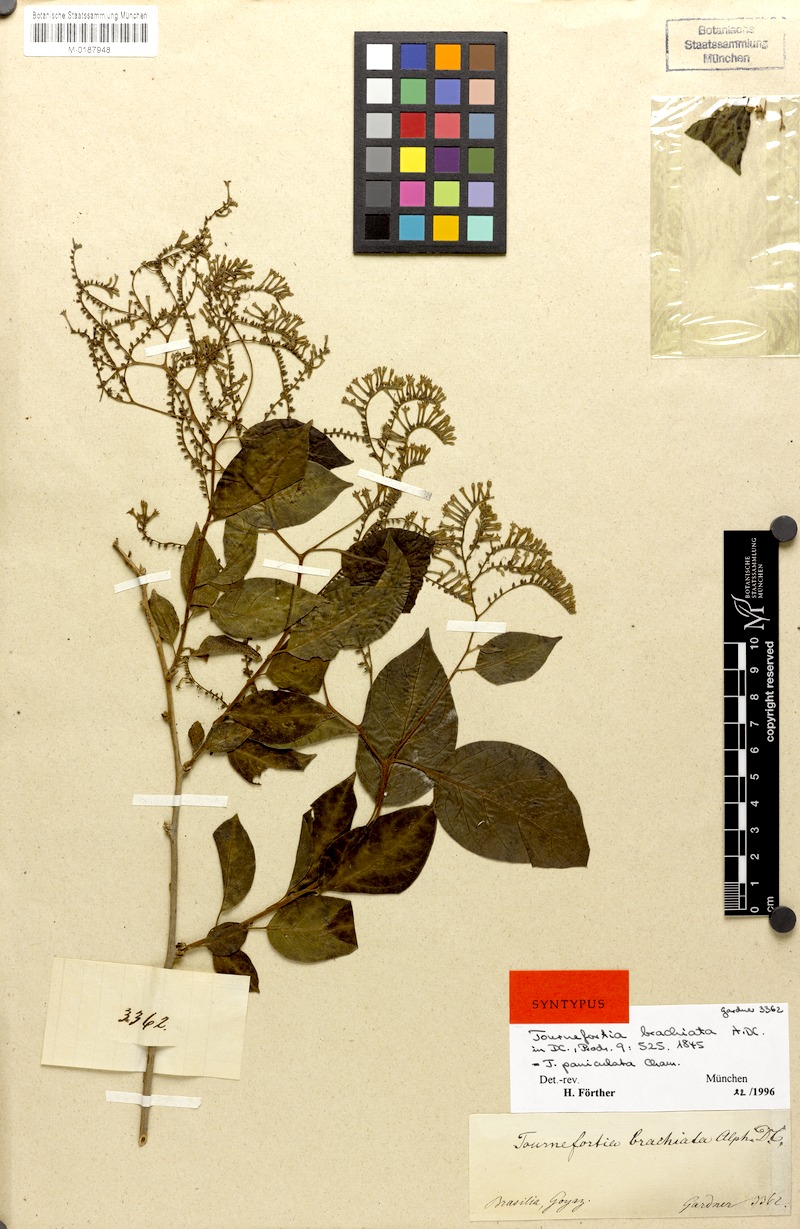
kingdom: Plantae
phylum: Tracheophyta
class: Magnoliopsida
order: Boraginales
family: Heliotropiaceae
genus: Myriopus
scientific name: Myriopus paniculatus
